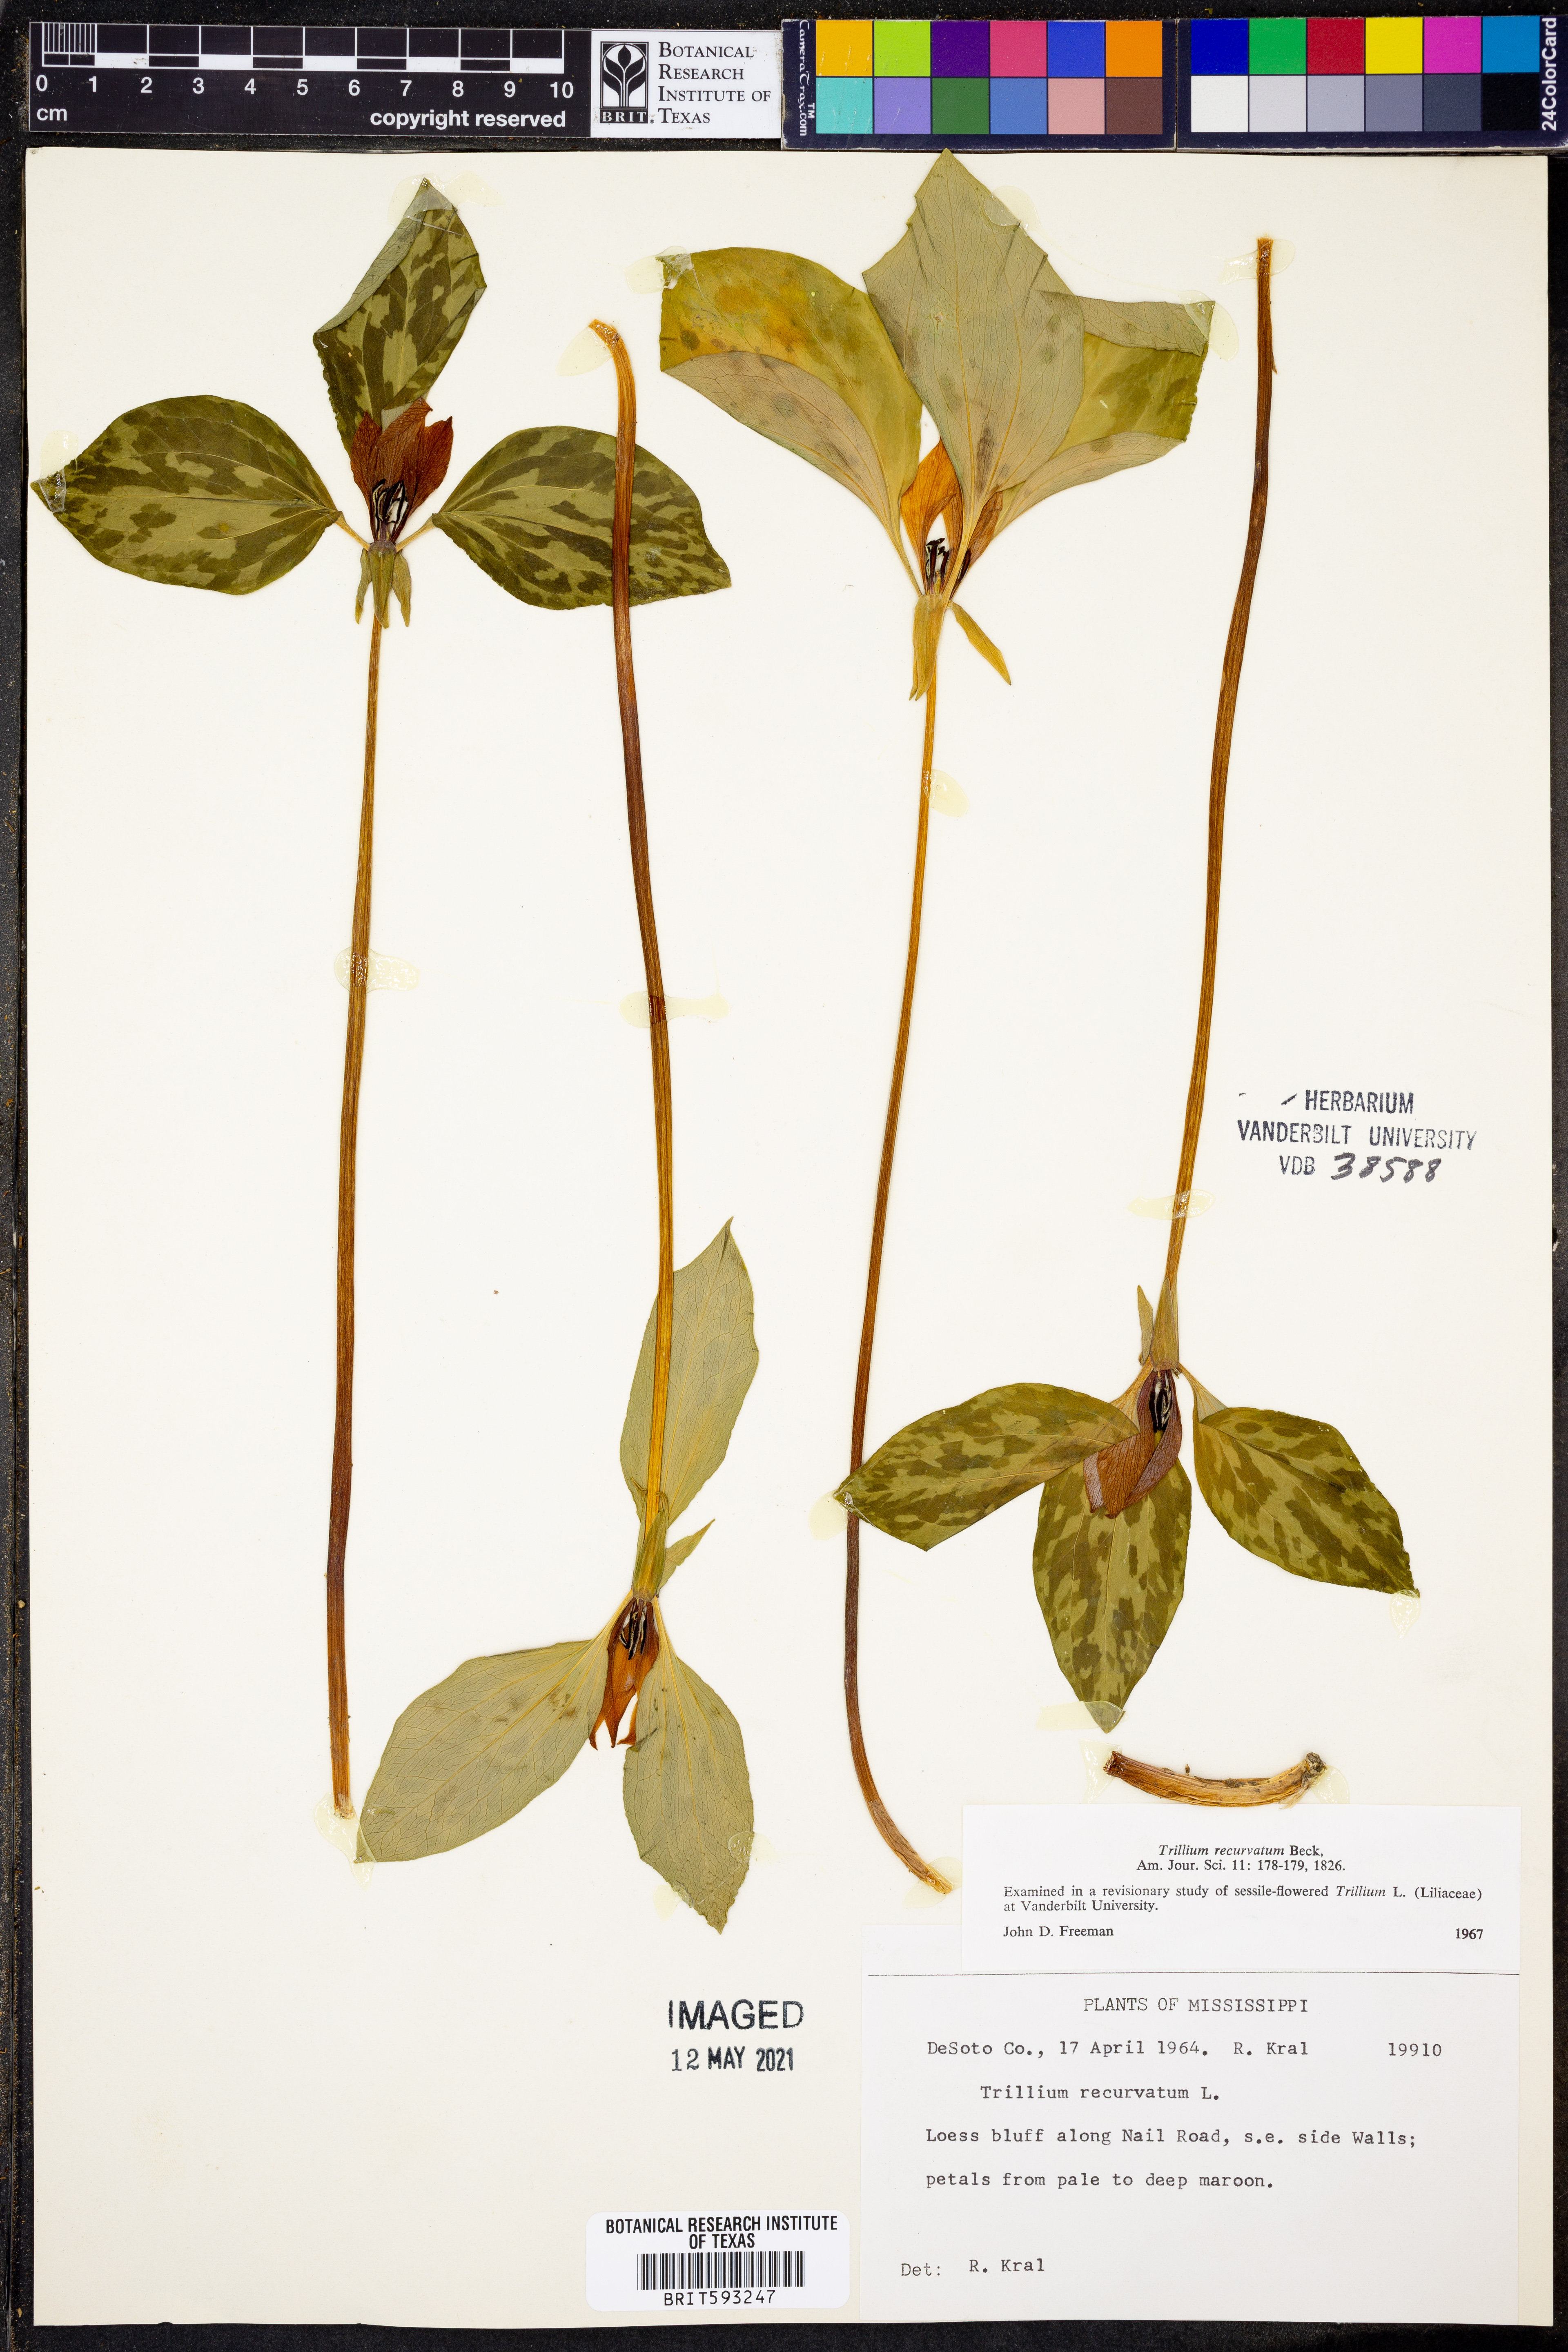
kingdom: Plantae
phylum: Tracheophyta
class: Liliopsida
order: Liliales
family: Melanthiaceae
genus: Trillium
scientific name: Trillium recurvatum
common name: Bloody butcher
